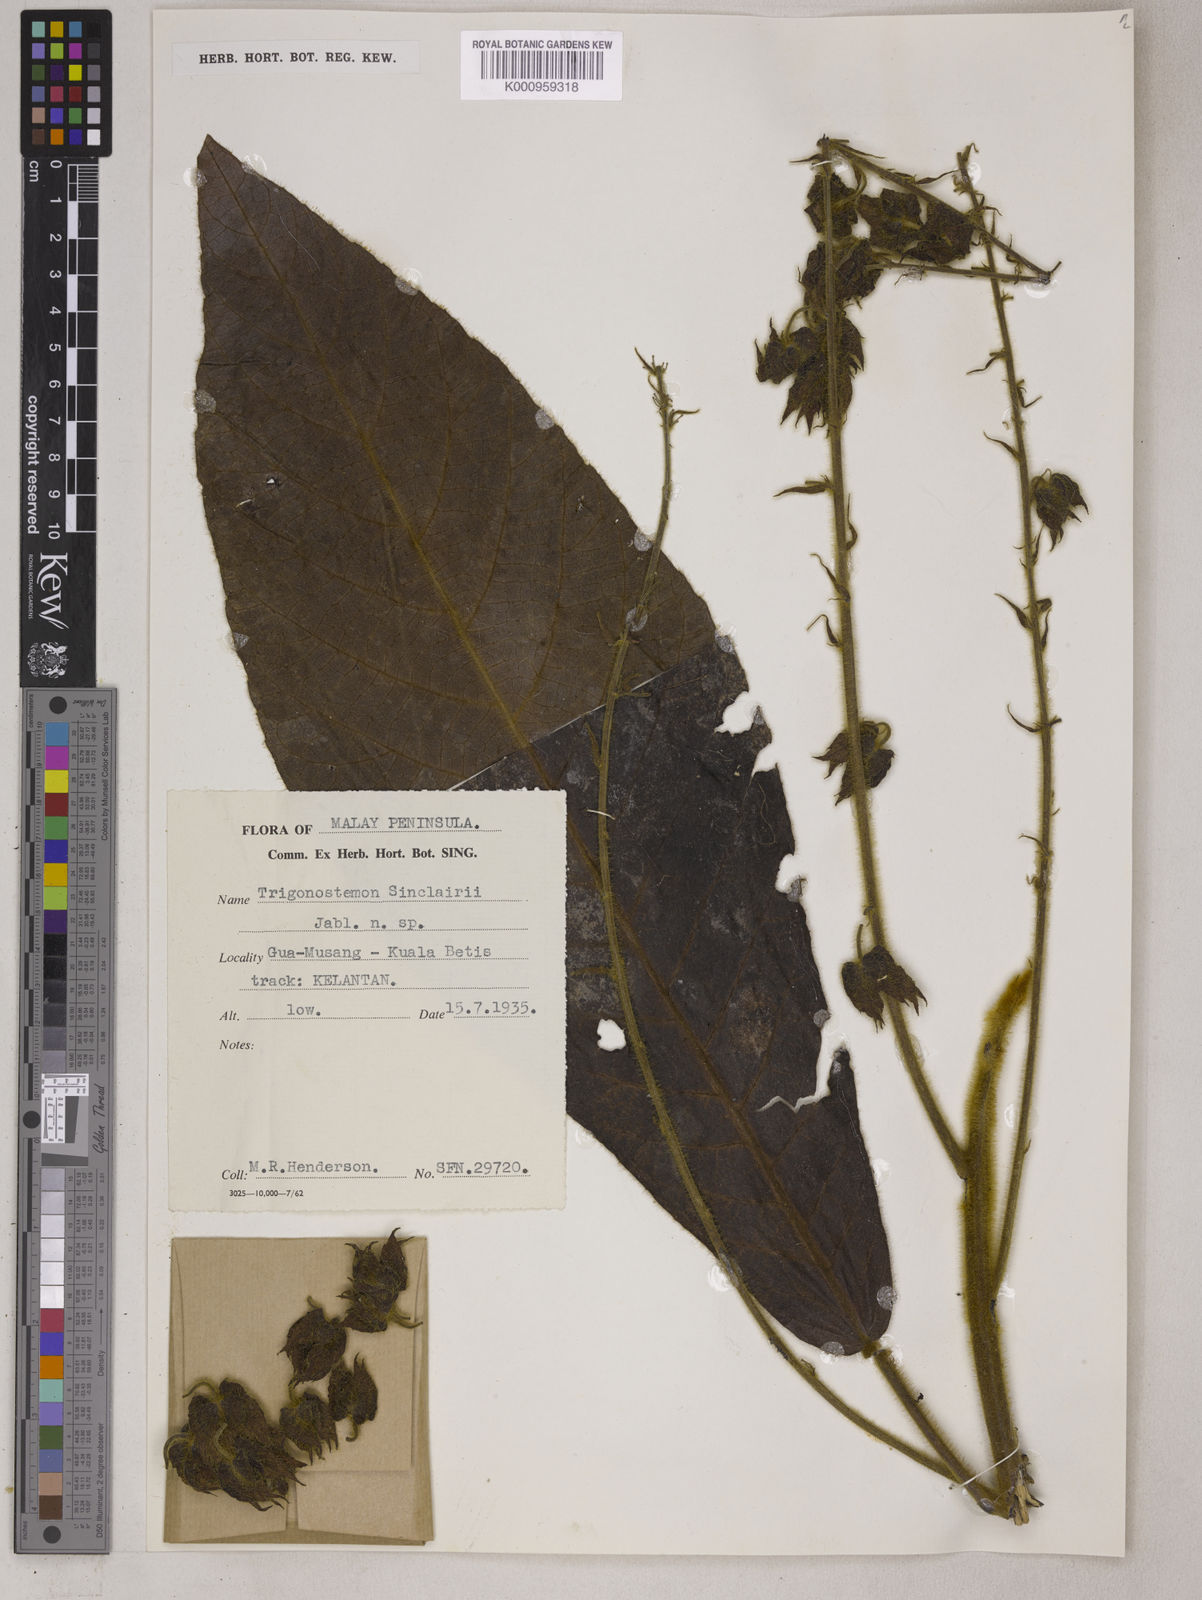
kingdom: Plantae
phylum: Tracheophyta
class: Magnoliopsida
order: Malpighiales
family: Euphorbiaceae
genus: Trigonostemon
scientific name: Trigonostemon sinclairii
